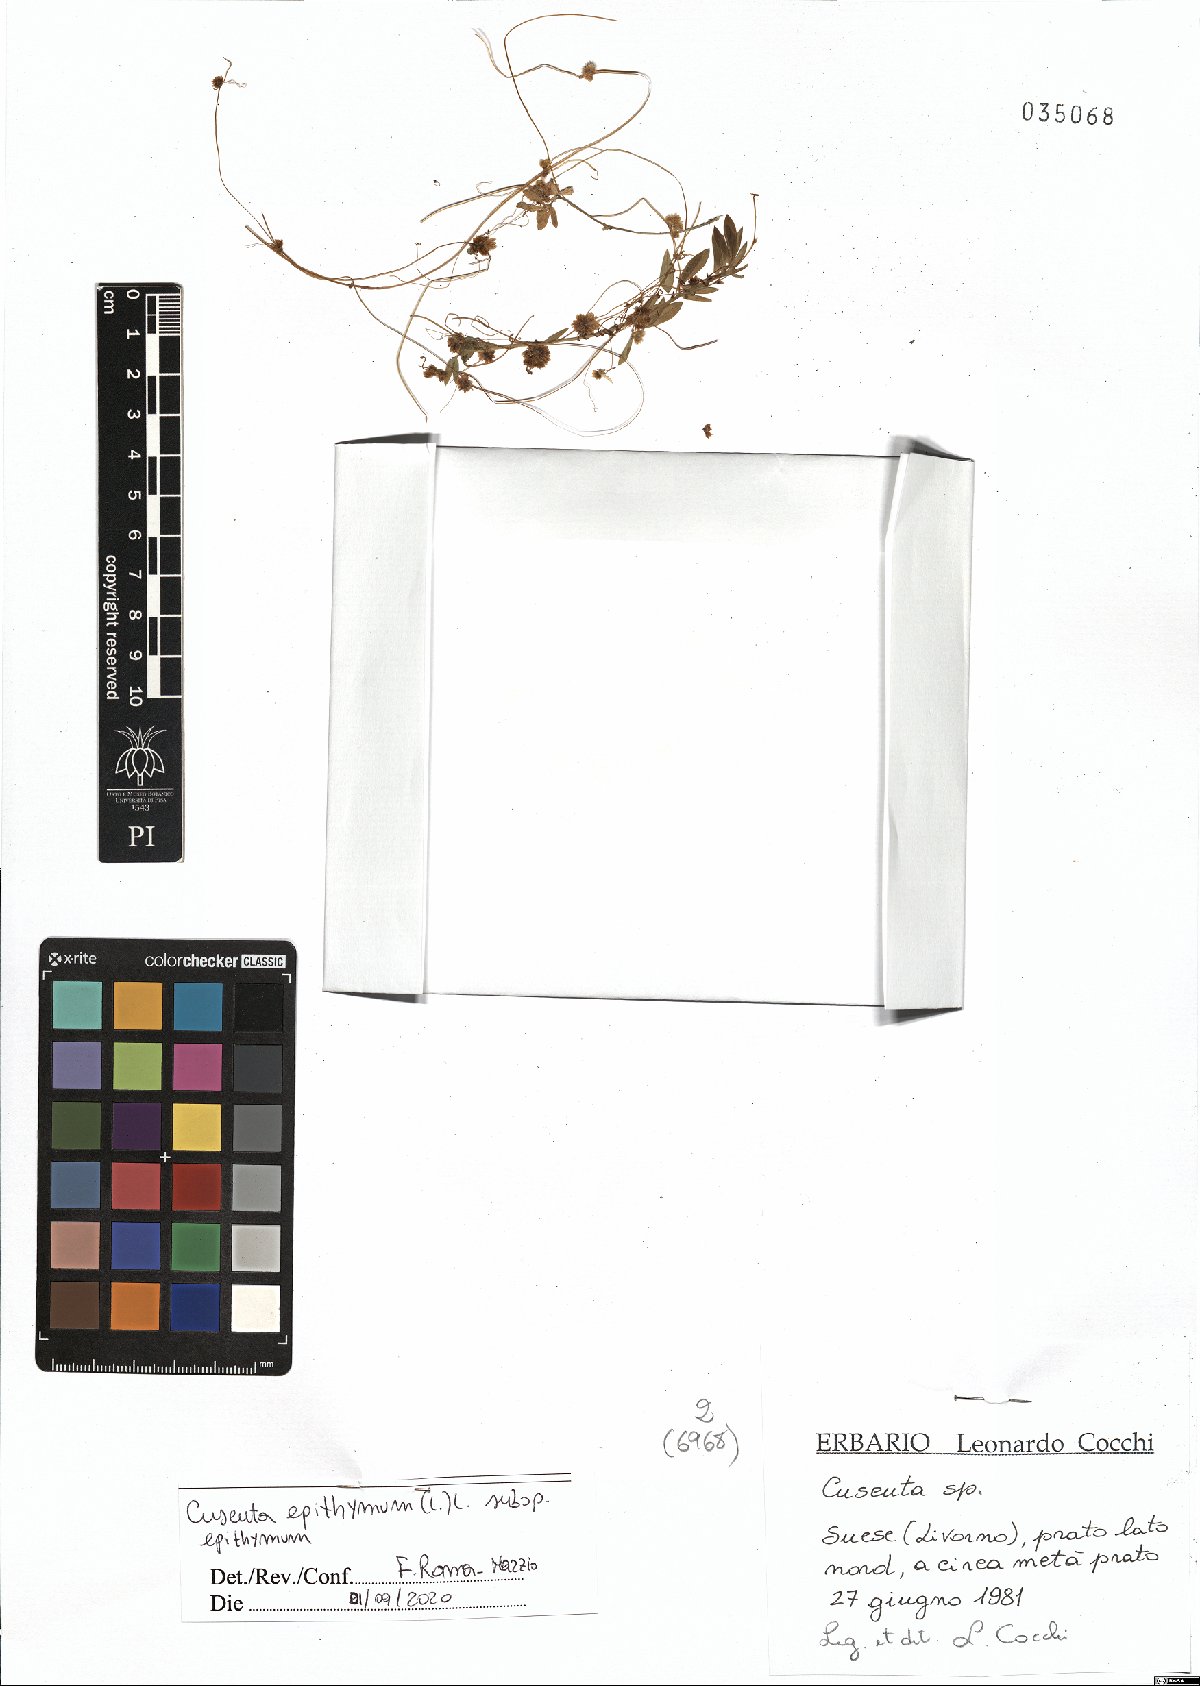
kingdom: Plantae
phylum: Tracheophyta
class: Magnoliopsida
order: Solanales
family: Convolvulaceae
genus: Cuscuta
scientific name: Cuscuta epithymum
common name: Clover dodder
